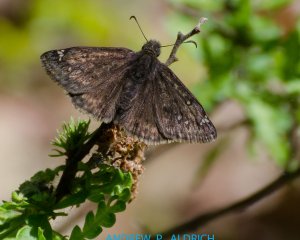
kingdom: Animalia
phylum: Arthropoda
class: Insecta
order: Lepidoptera
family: Hesperiidae
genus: Gesta
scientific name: Gesta
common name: Juvenal's Duskywing
